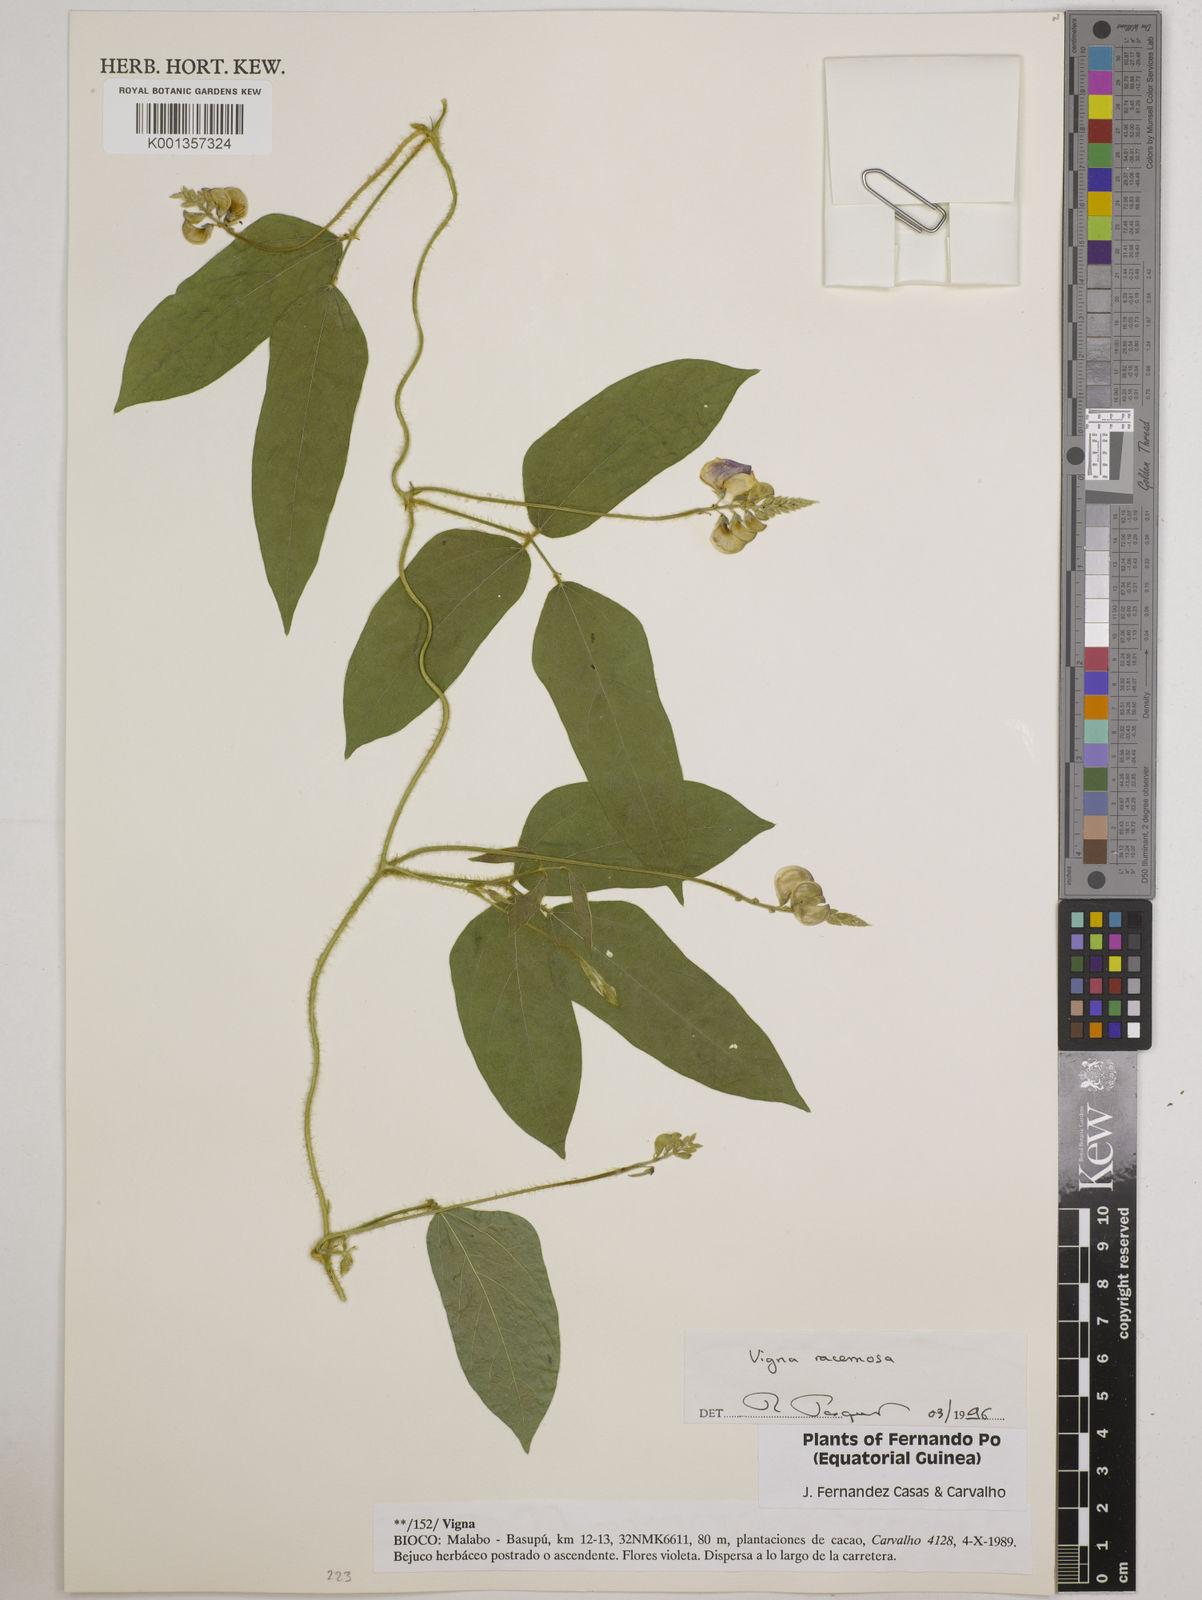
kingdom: Plantae
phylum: Tracheophyta
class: Magnoliopsida
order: Fabales
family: Fabaceae
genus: Vigna
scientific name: Vigna racemosa
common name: Beans not eaten
